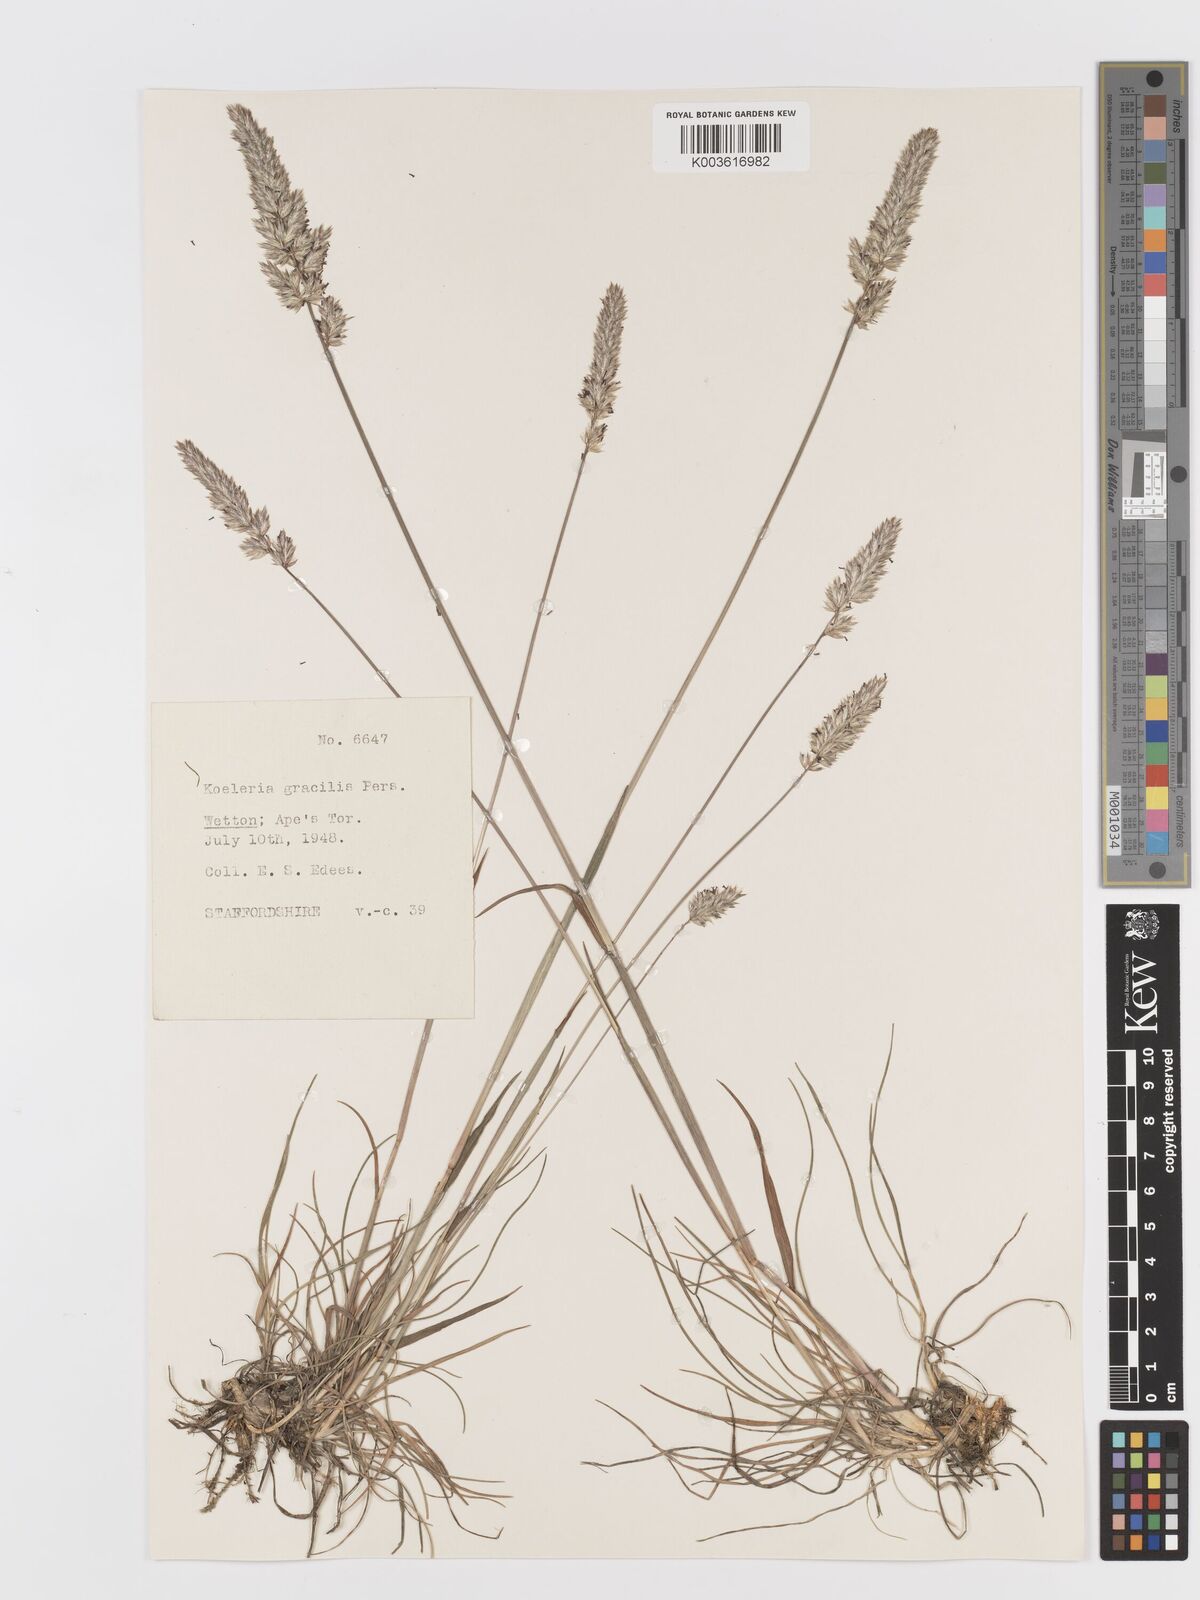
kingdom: Plantae
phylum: Tracheophyta
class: Liliopsida
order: Poales
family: Poaceae
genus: Koeleria
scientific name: Koeleria macrantha
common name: Crested hair-grass
